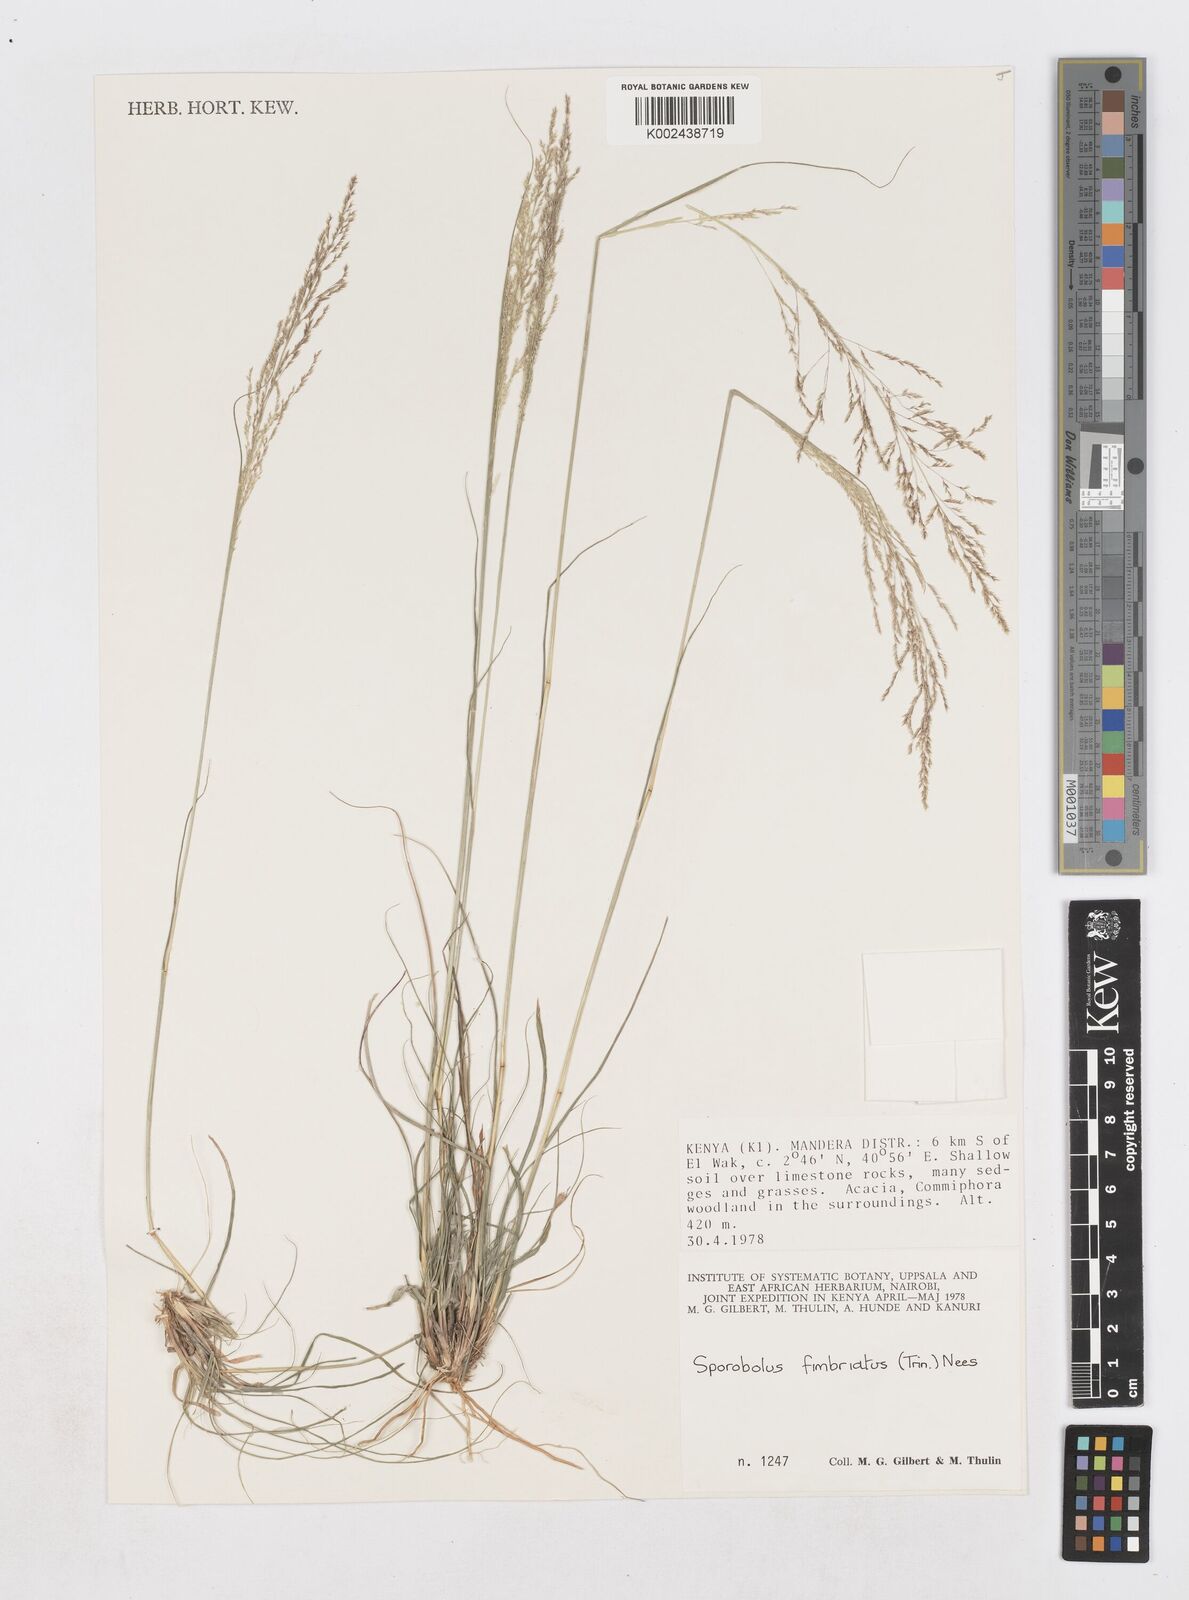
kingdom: Plantae
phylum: Tracheophyta
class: Liliopsida
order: Poales
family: Poaceae
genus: Sporobolus
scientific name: Sporobolus fimbriatus
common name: Fringed dropseed
